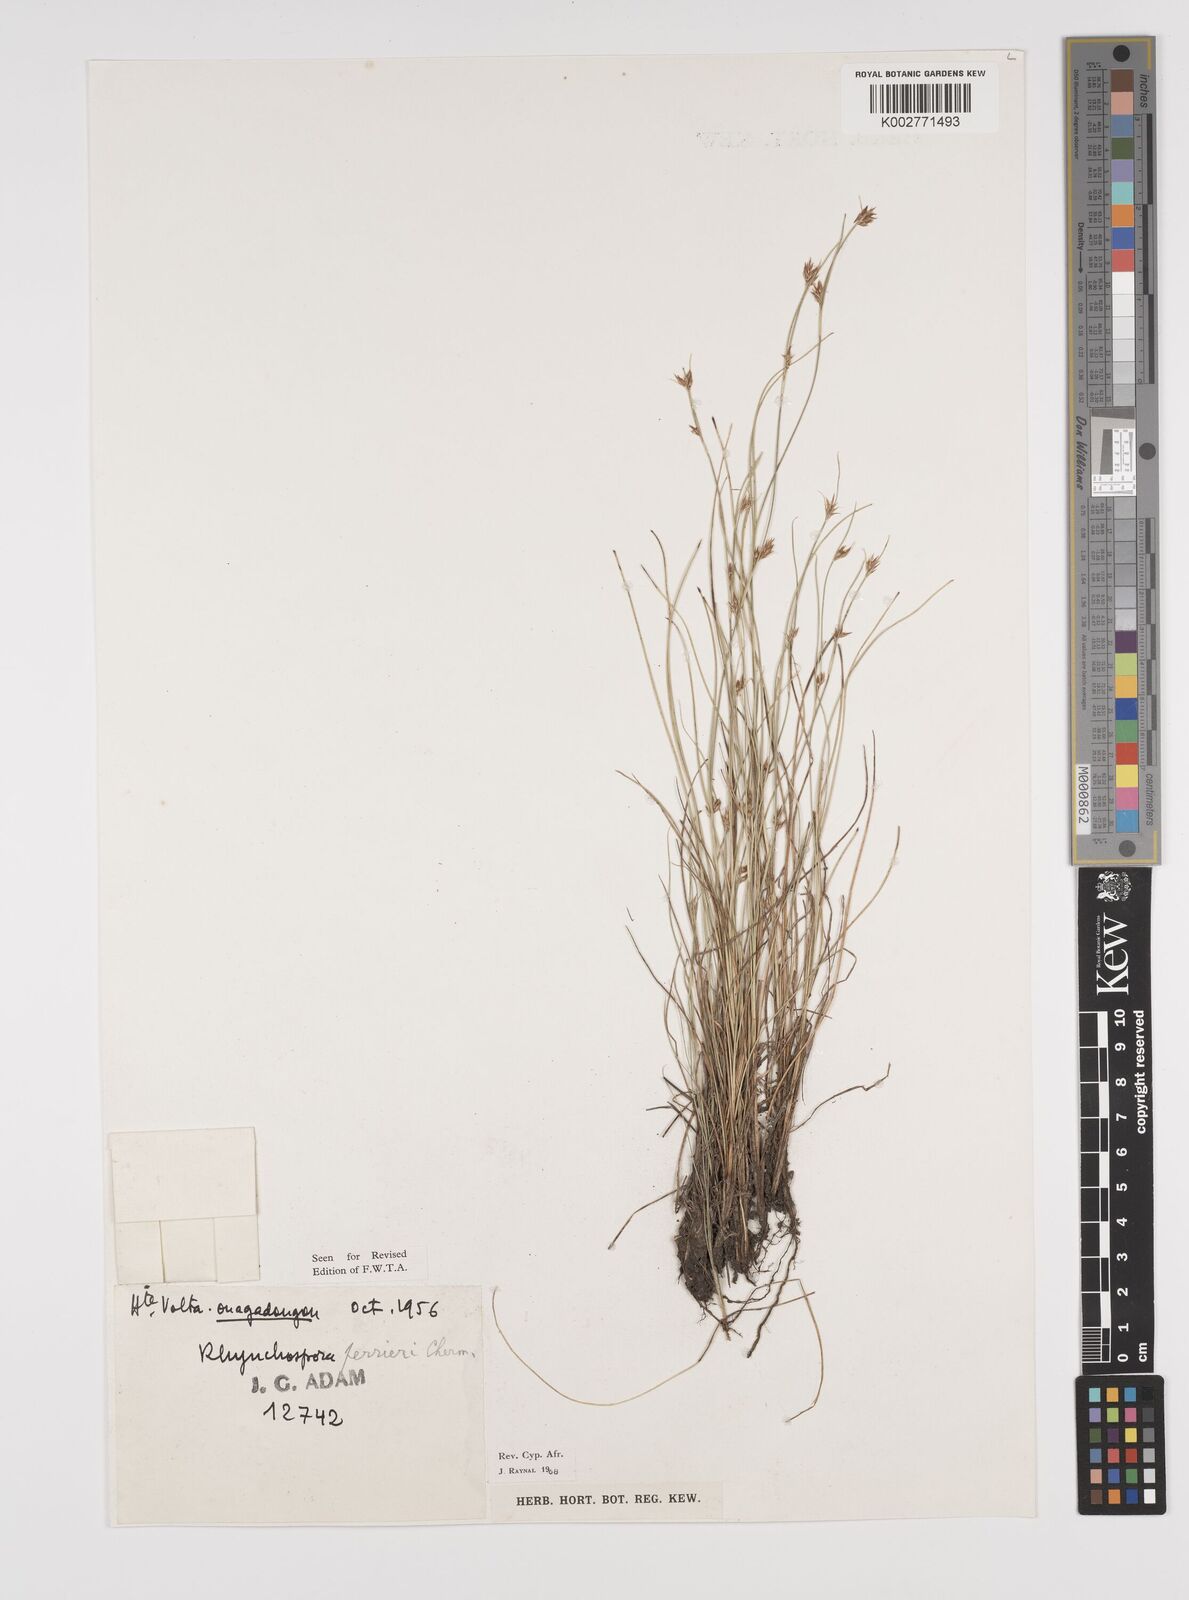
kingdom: Plantae
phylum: Tracheophyta
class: Liliopsida
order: Poales
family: Cyperaceae
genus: Rhynchospora
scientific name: Rhynchospora perrieri
